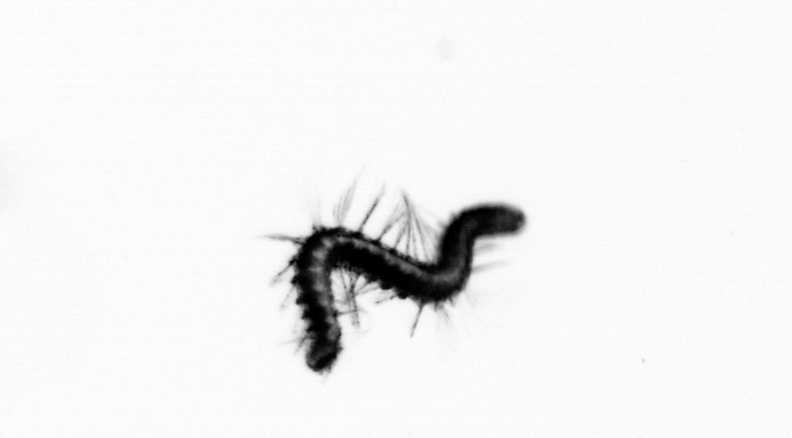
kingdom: Animalia
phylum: Annelida
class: Polychaeta
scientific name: Polychaeta
